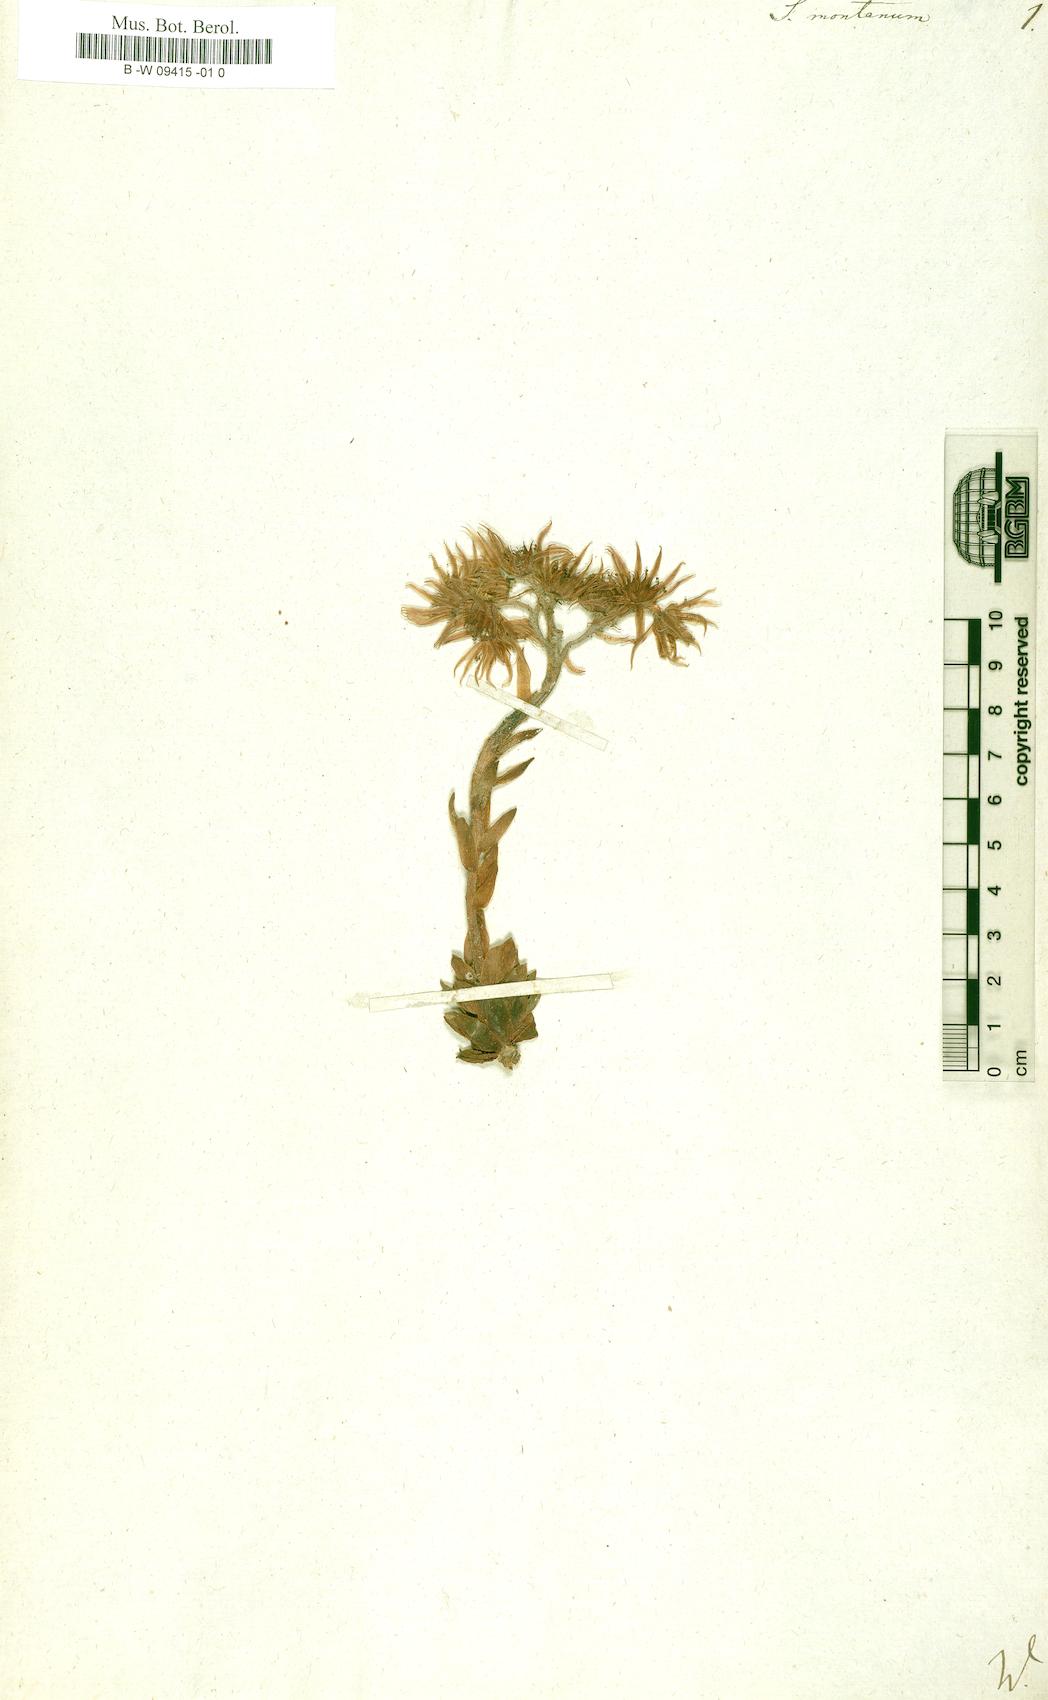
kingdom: Plantae
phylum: Tracheophyta
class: Magnoliopsida
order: Saxifragales
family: Crassulaceae
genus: Sempervivum
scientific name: Sempervivum montanum
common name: Mountain house-leek
